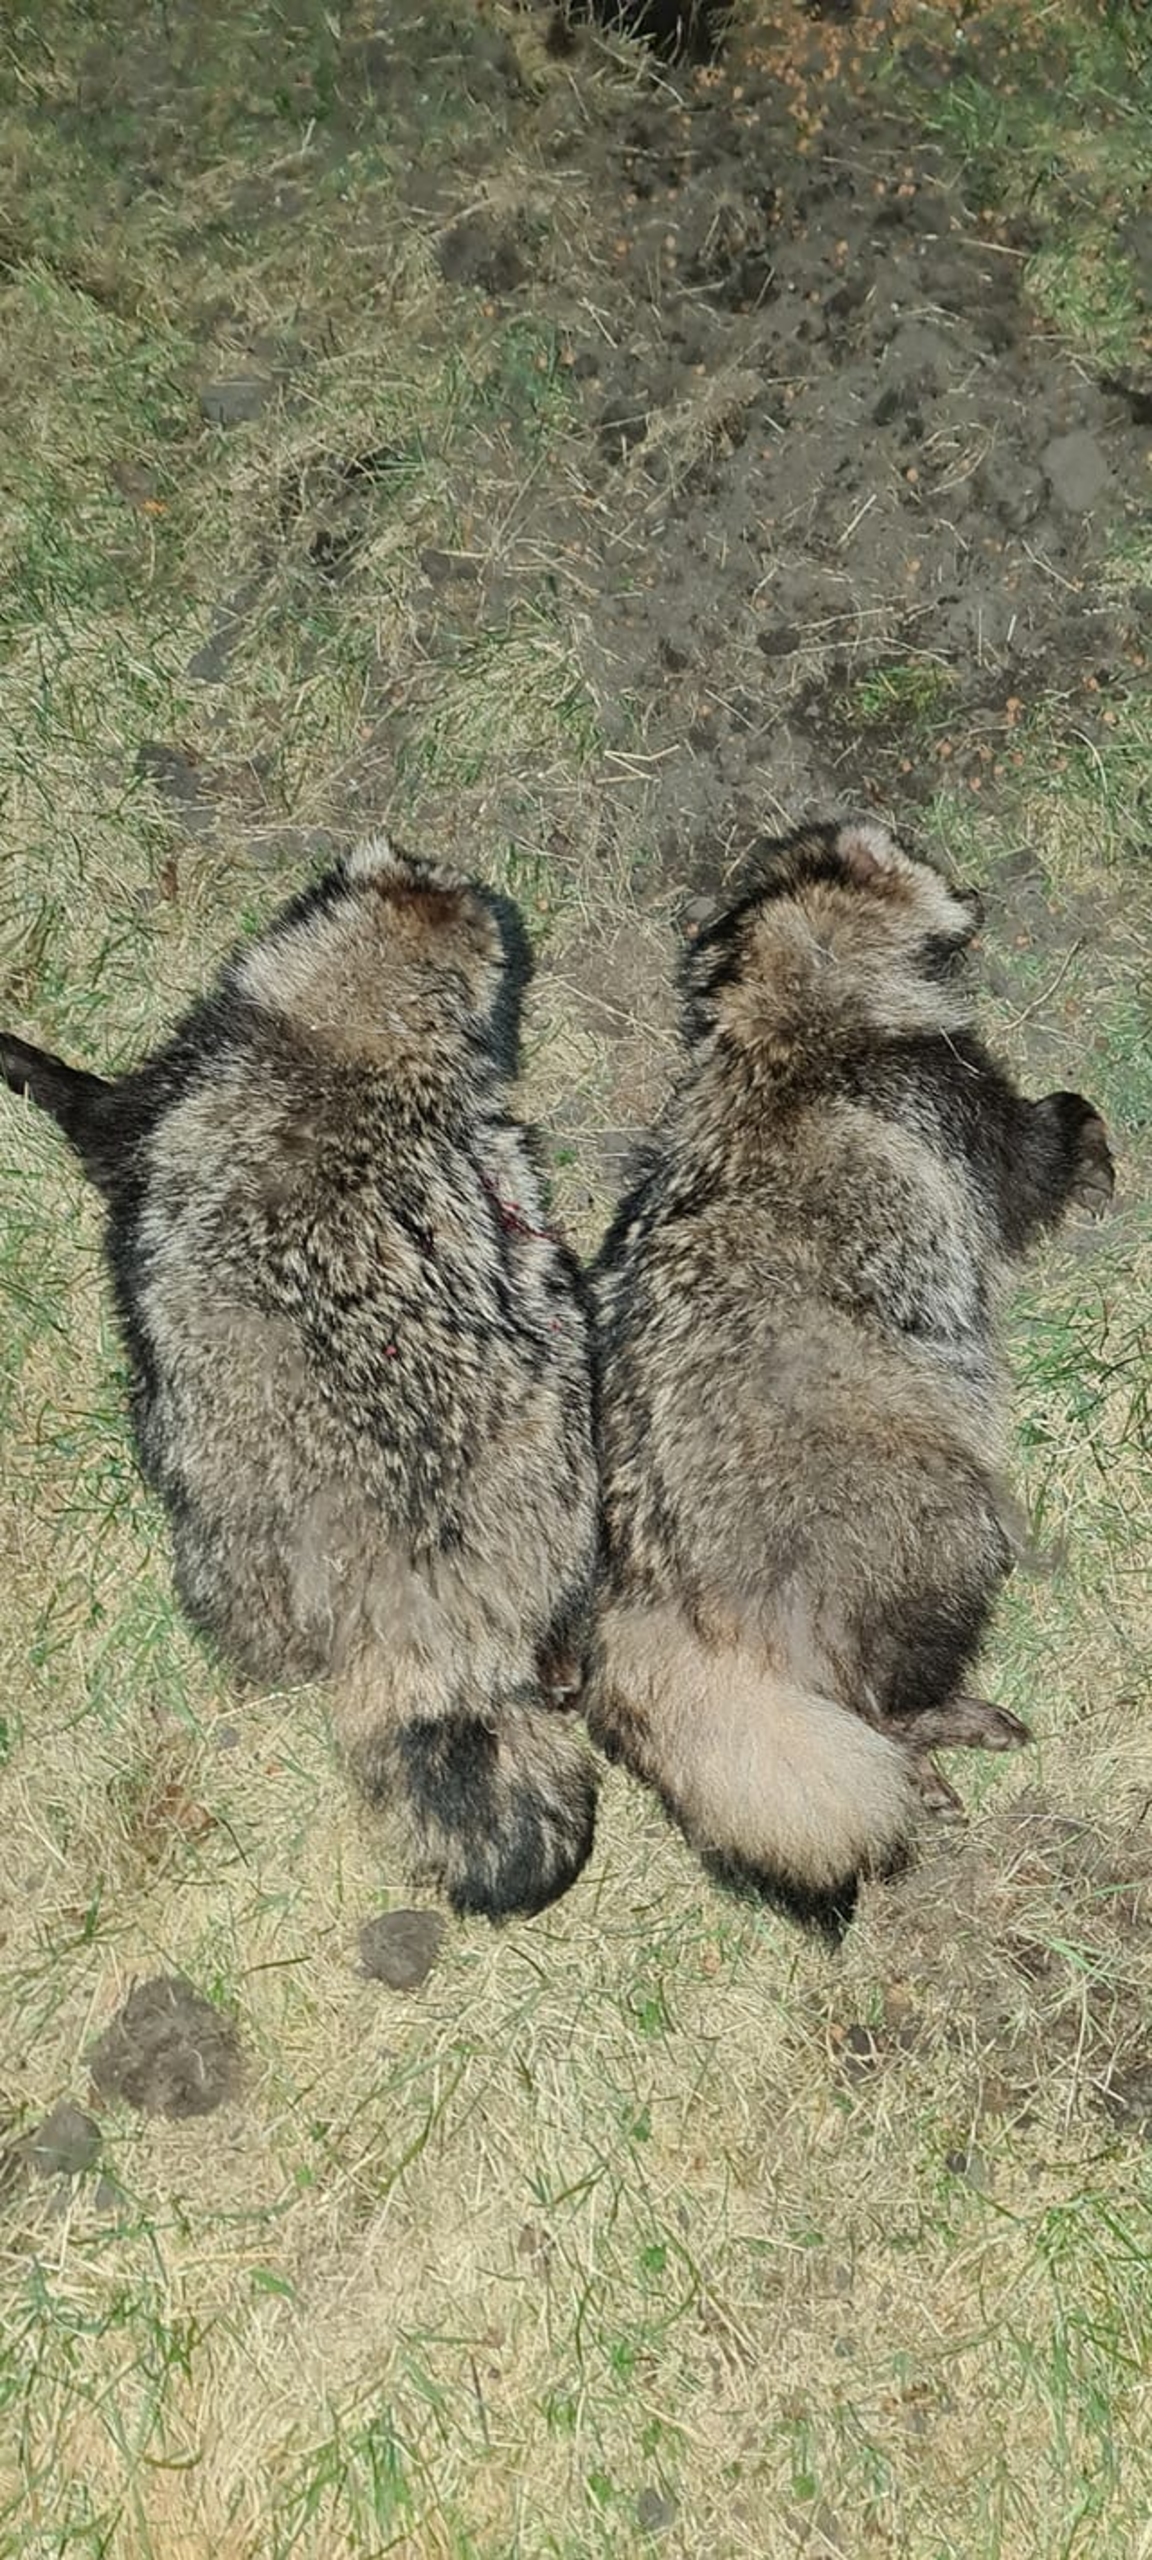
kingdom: Animalia
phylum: Chordata
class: Mammalia
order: Carnivora
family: Canidae
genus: Nyctereutes
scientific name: Nyctereutes procyonoides
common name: Mårhund
